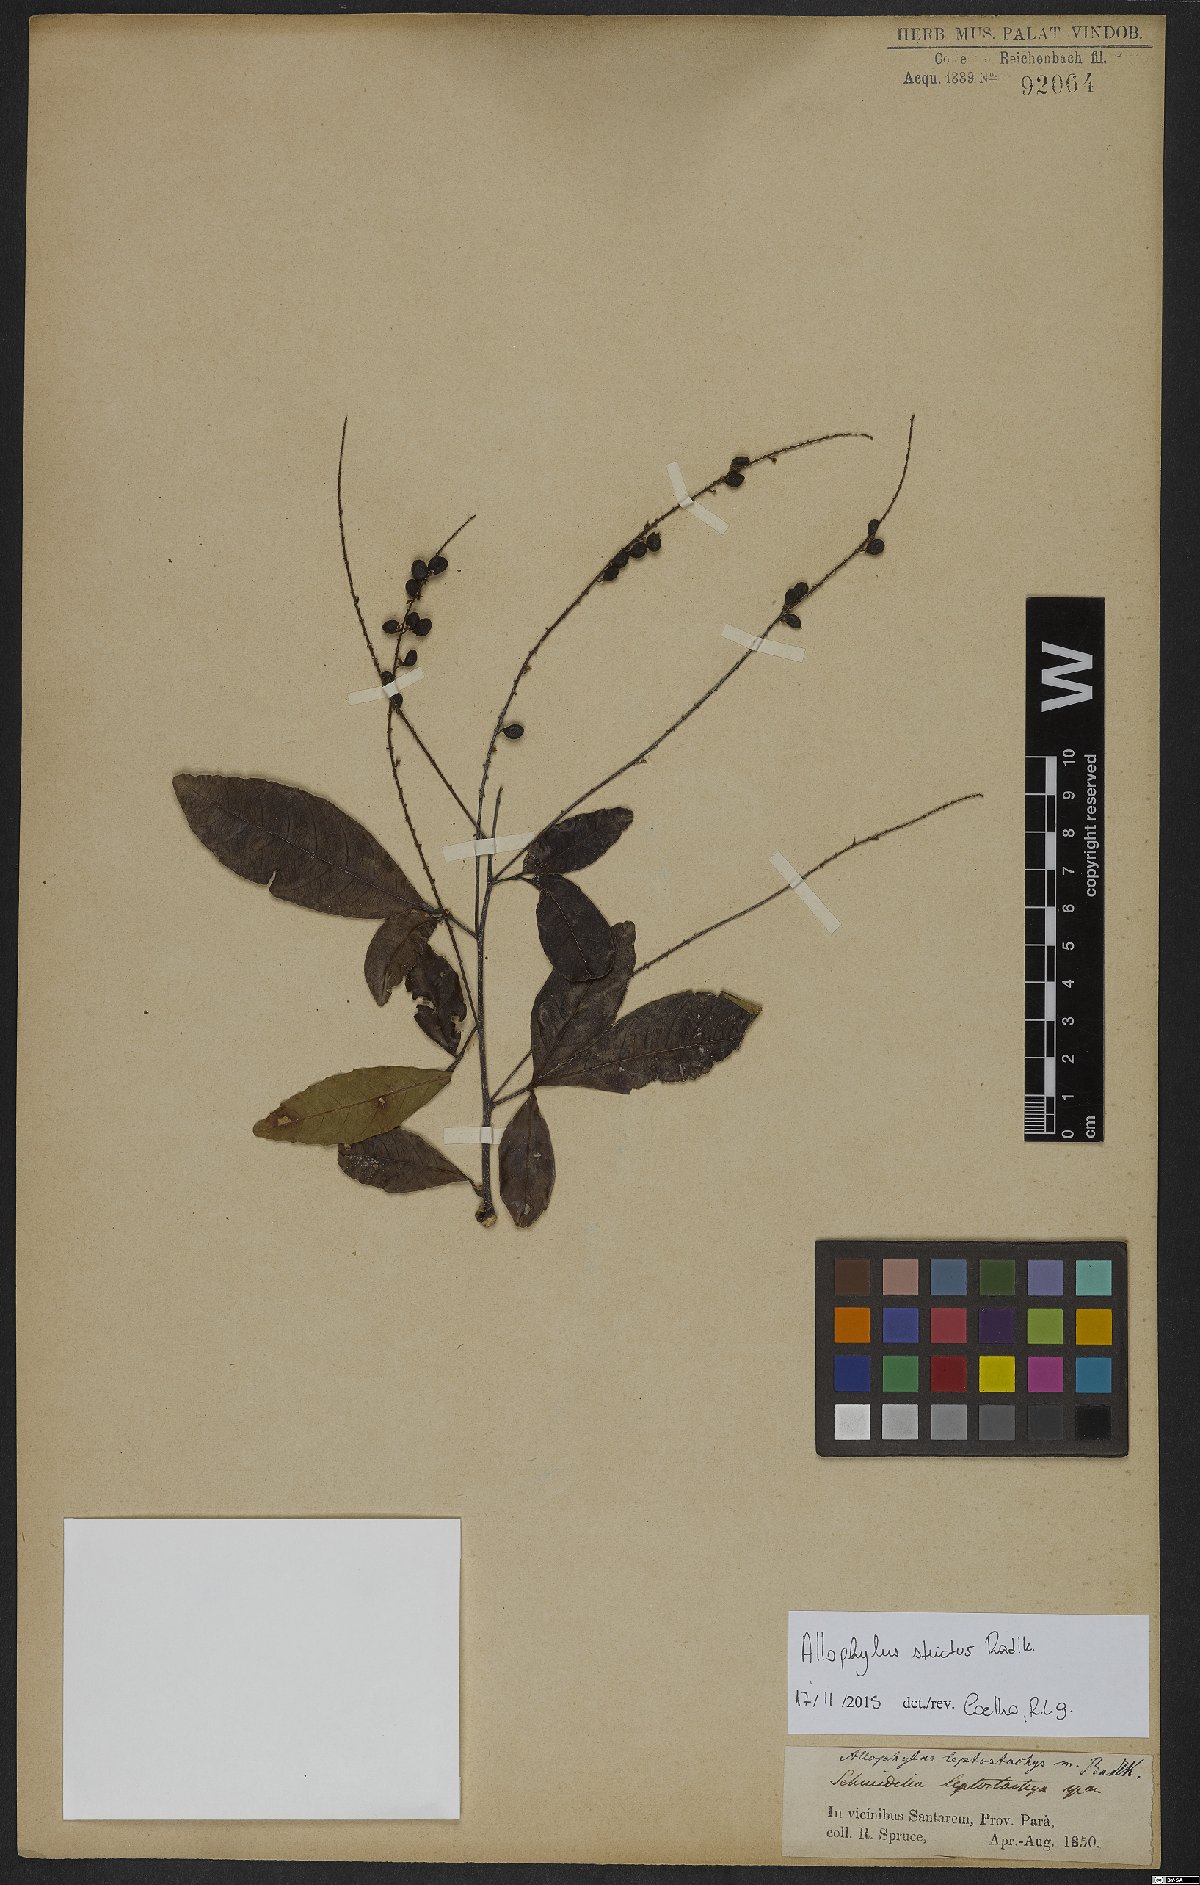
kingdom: Plantae
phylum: Tracheophyta
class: Magnoliopsida
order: Sapindales
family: Sapindaceae
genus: Allophylus
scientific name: Allophylus strictus
